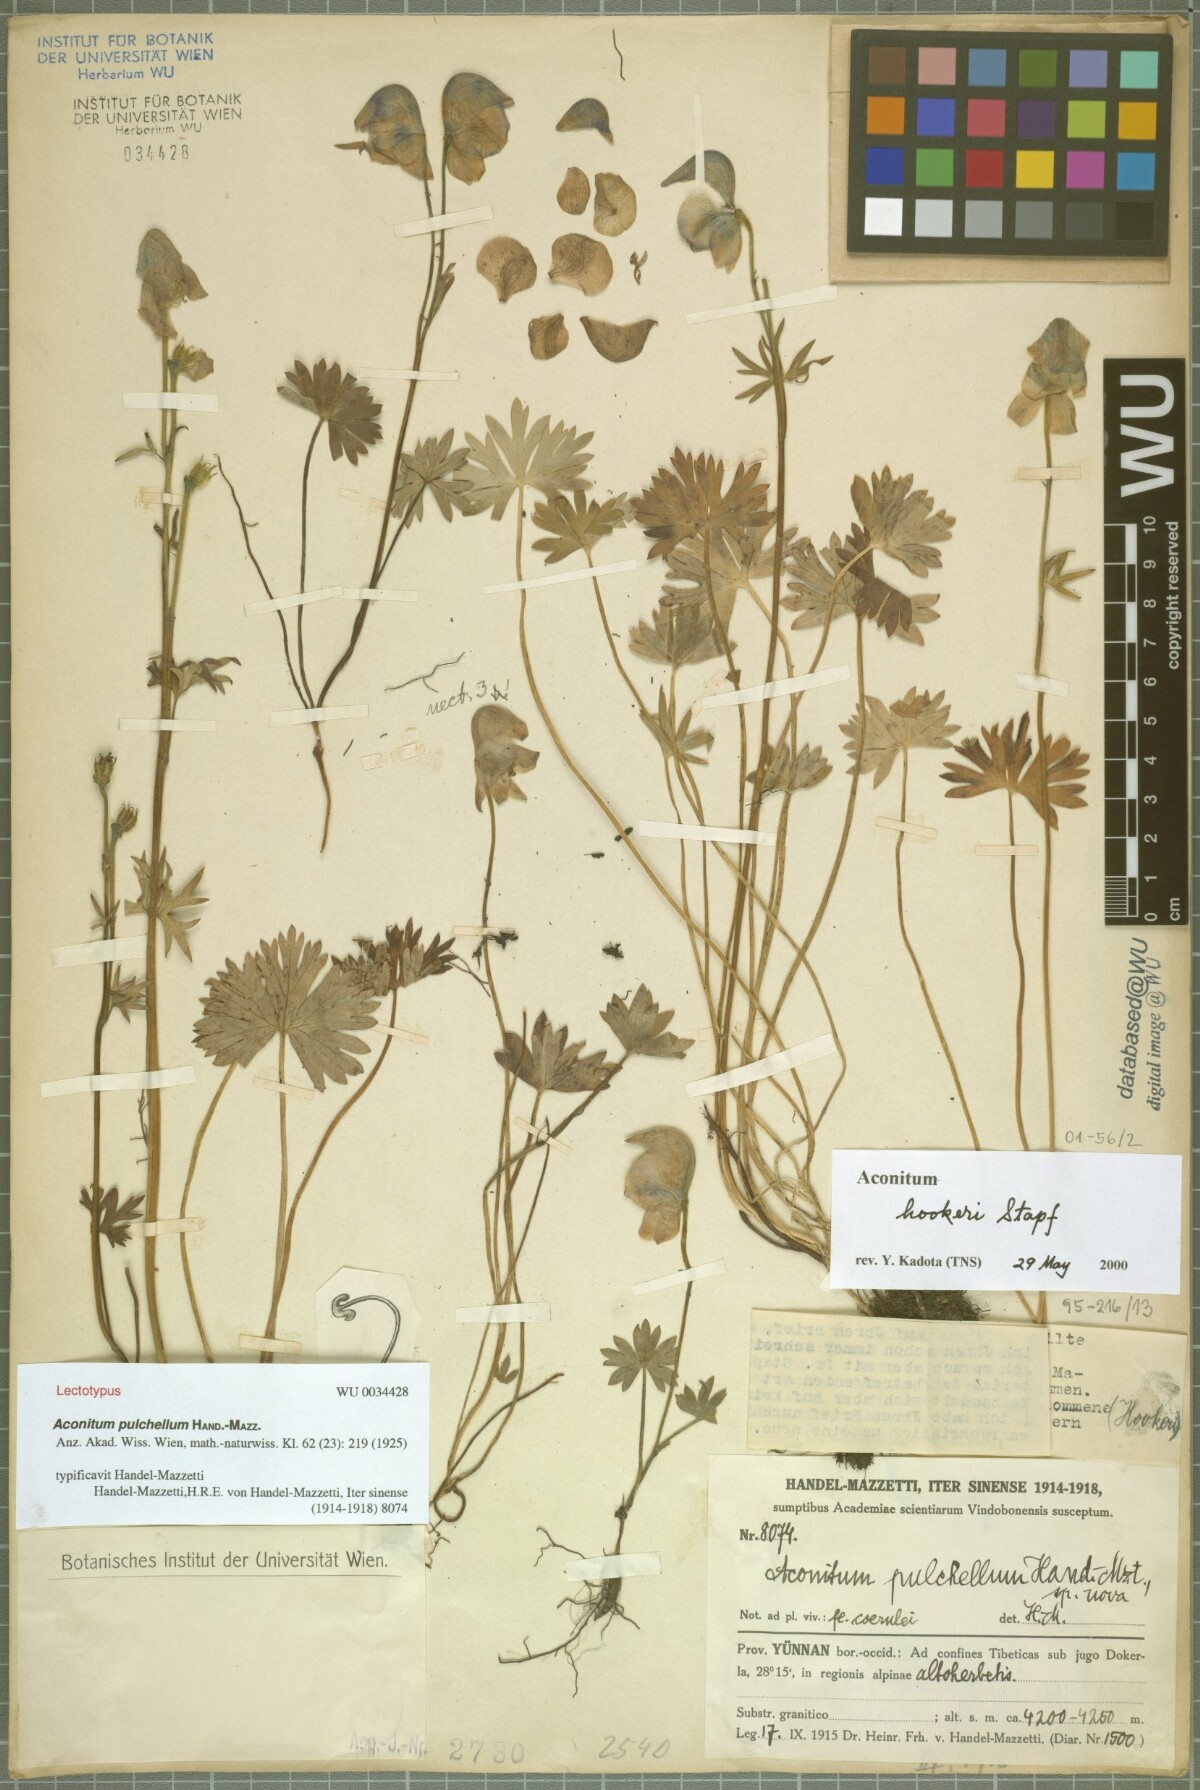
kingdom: Plantae
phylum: Tracheophyta
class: Magnoliopsida
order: Ranunculales
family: Ranunculaceae
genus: Aconitum
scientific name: Aconitum pulchellum
